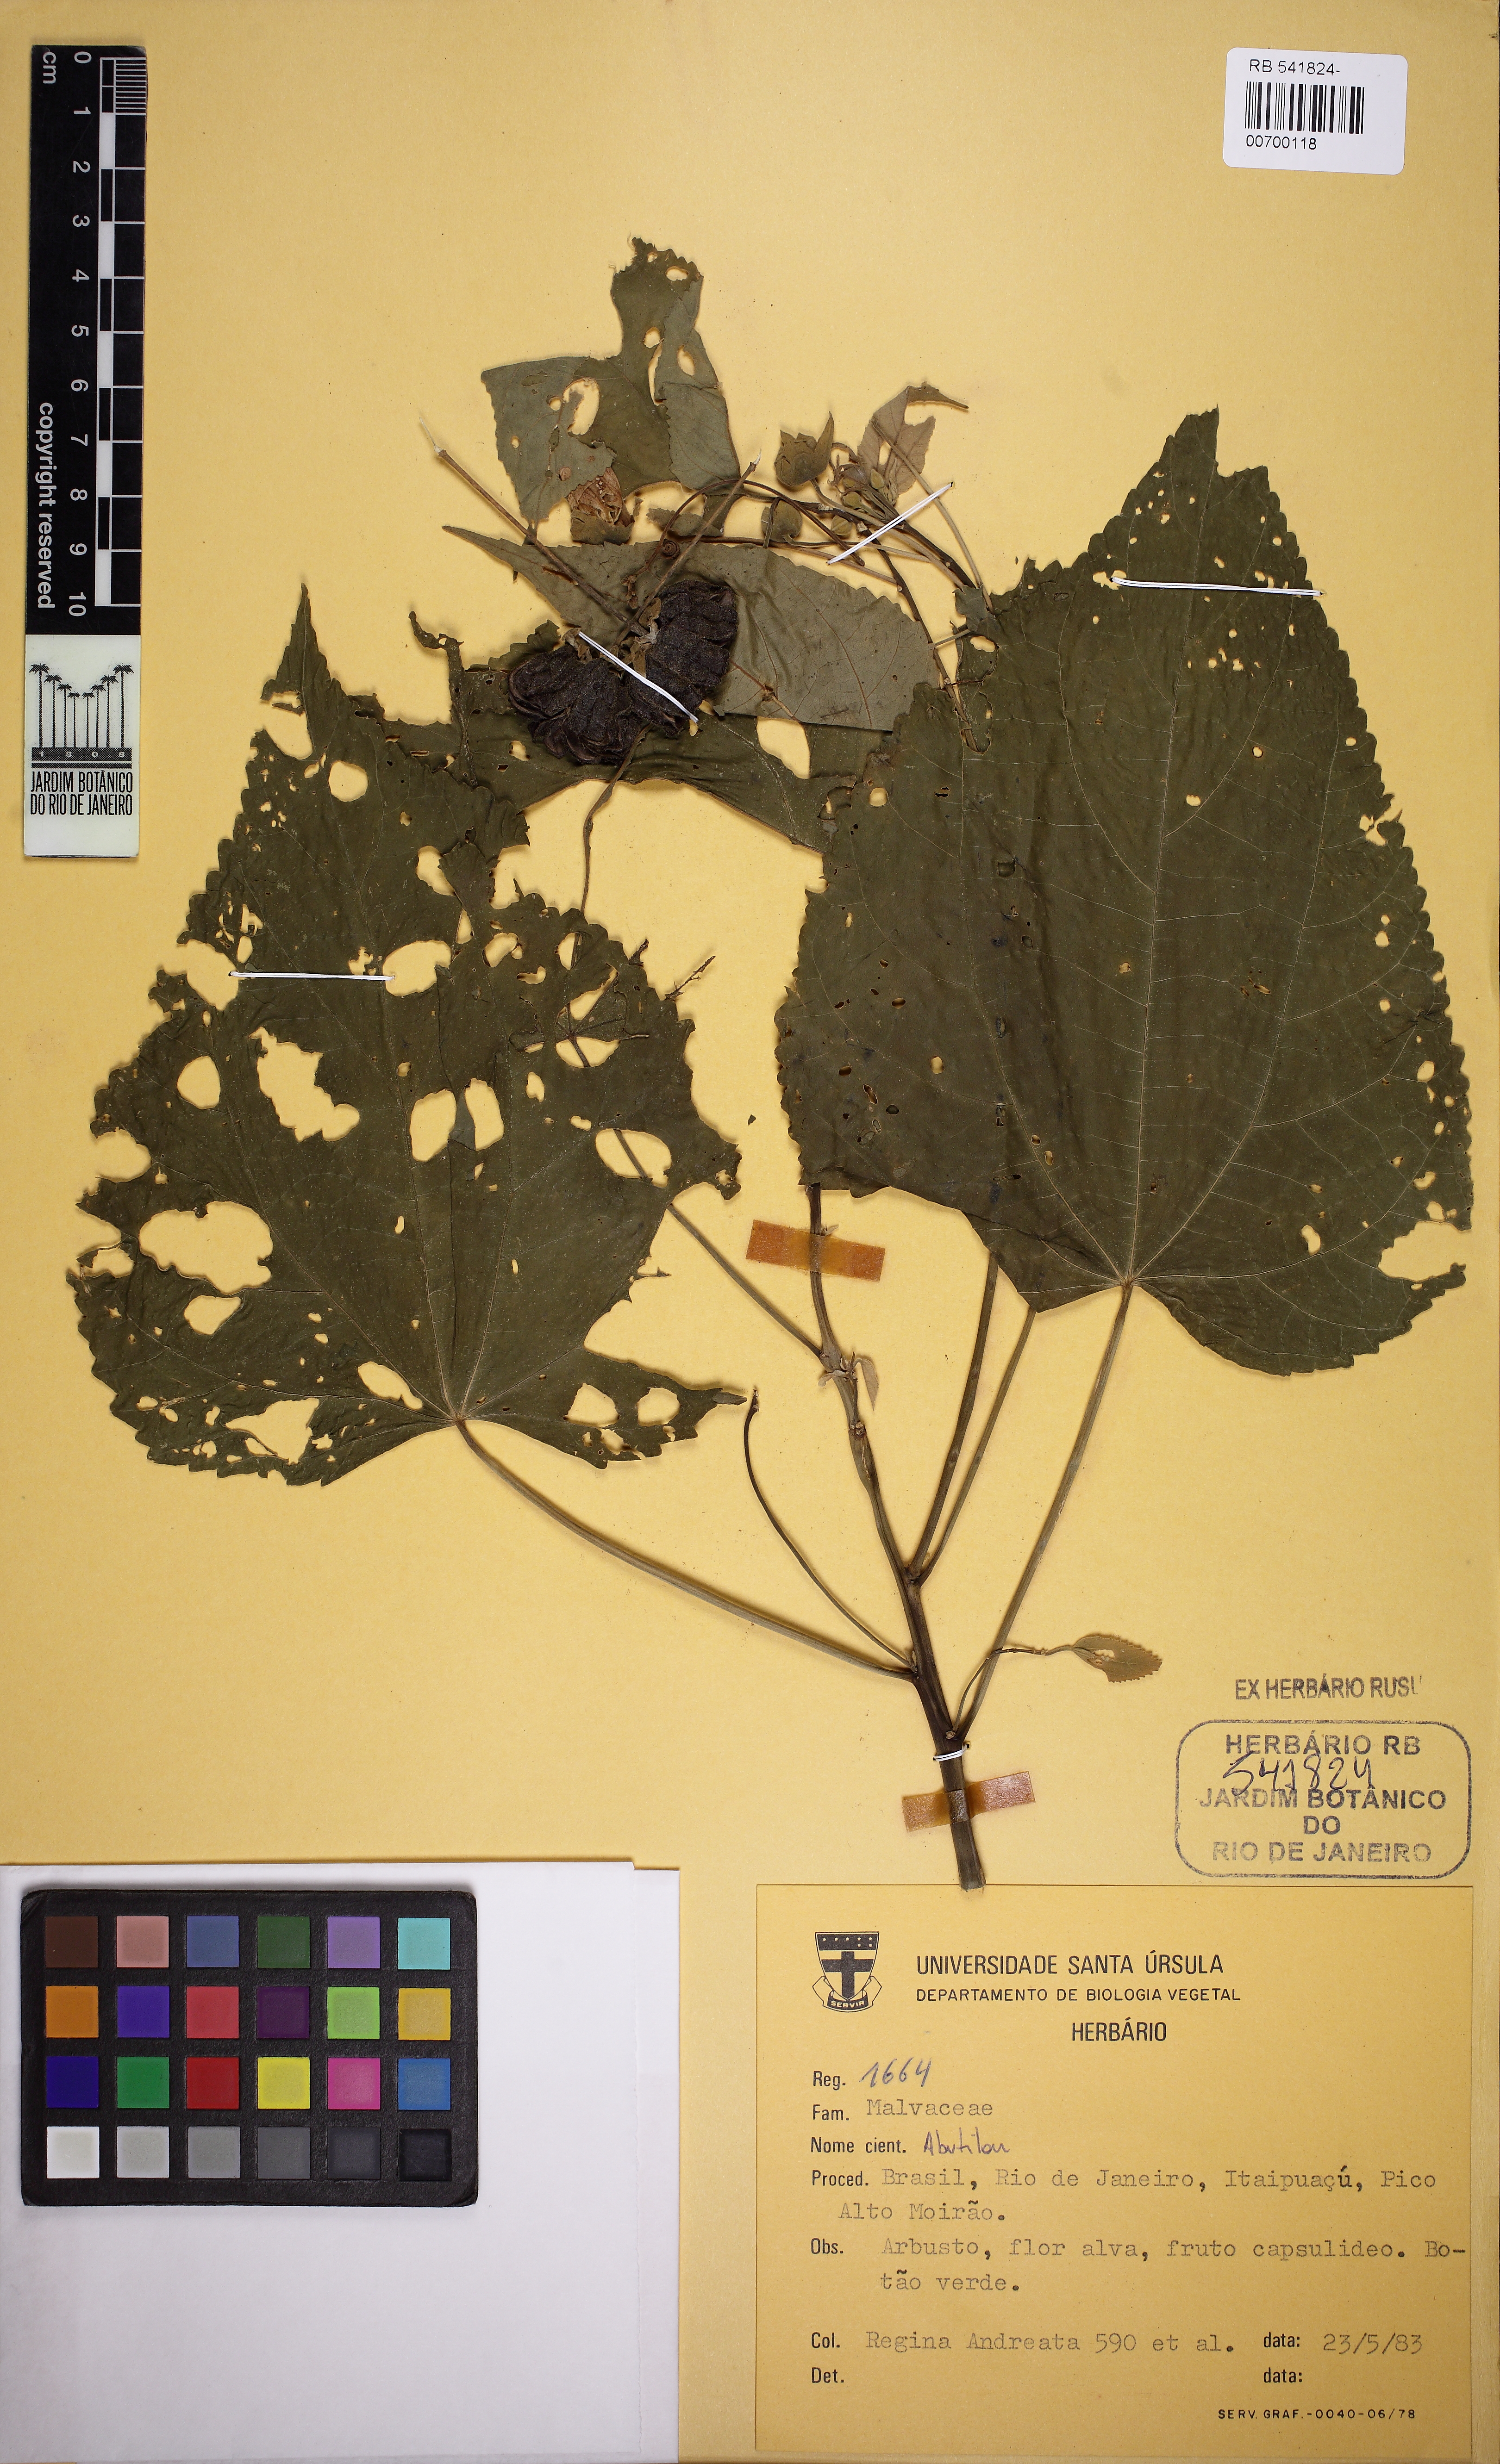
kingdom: Plantae
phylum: Tracheophyta
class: Magnoliopsida
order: Malvales
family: Malvaceae
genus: Abutilon
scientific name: Abutilon
